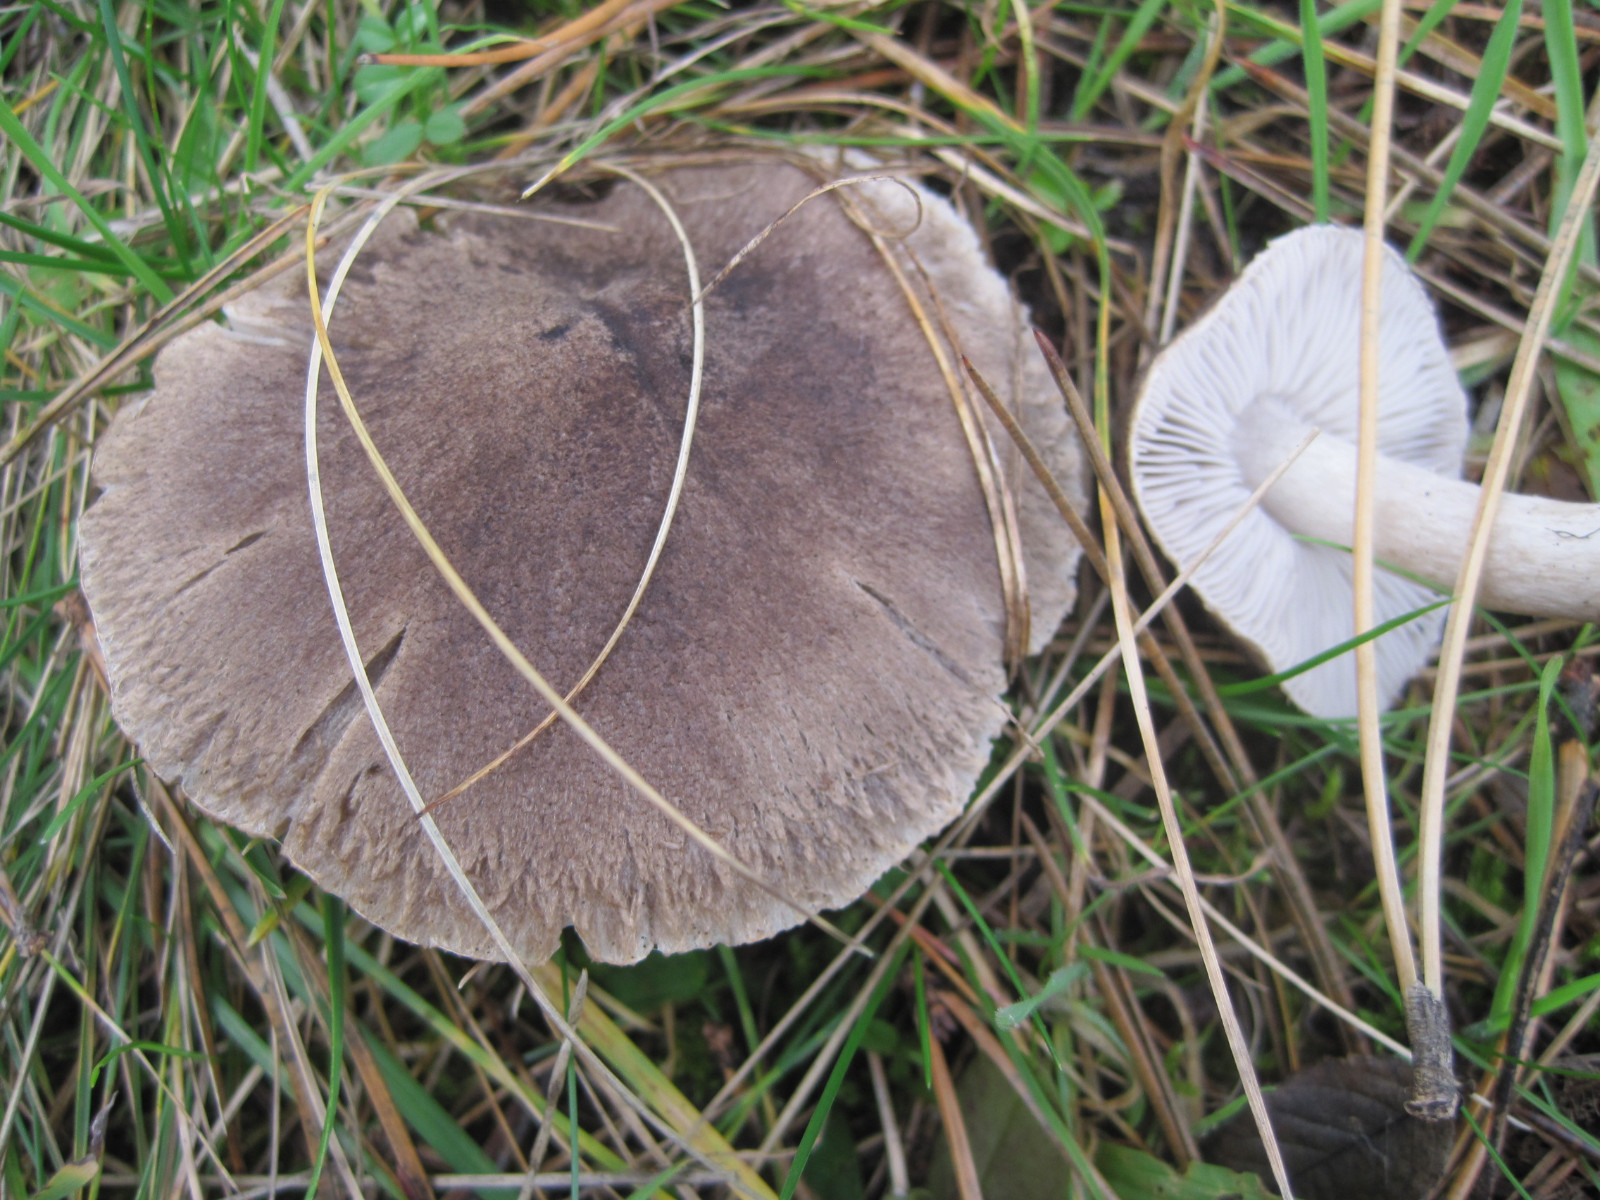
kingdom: Fungi
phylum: Basidiomycota
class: Agaricomycetes
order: Agaricales
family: Tricholomataceae
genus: Tricholoma
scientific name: Tricholoma terreum
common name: jordfarvet ridderhat
